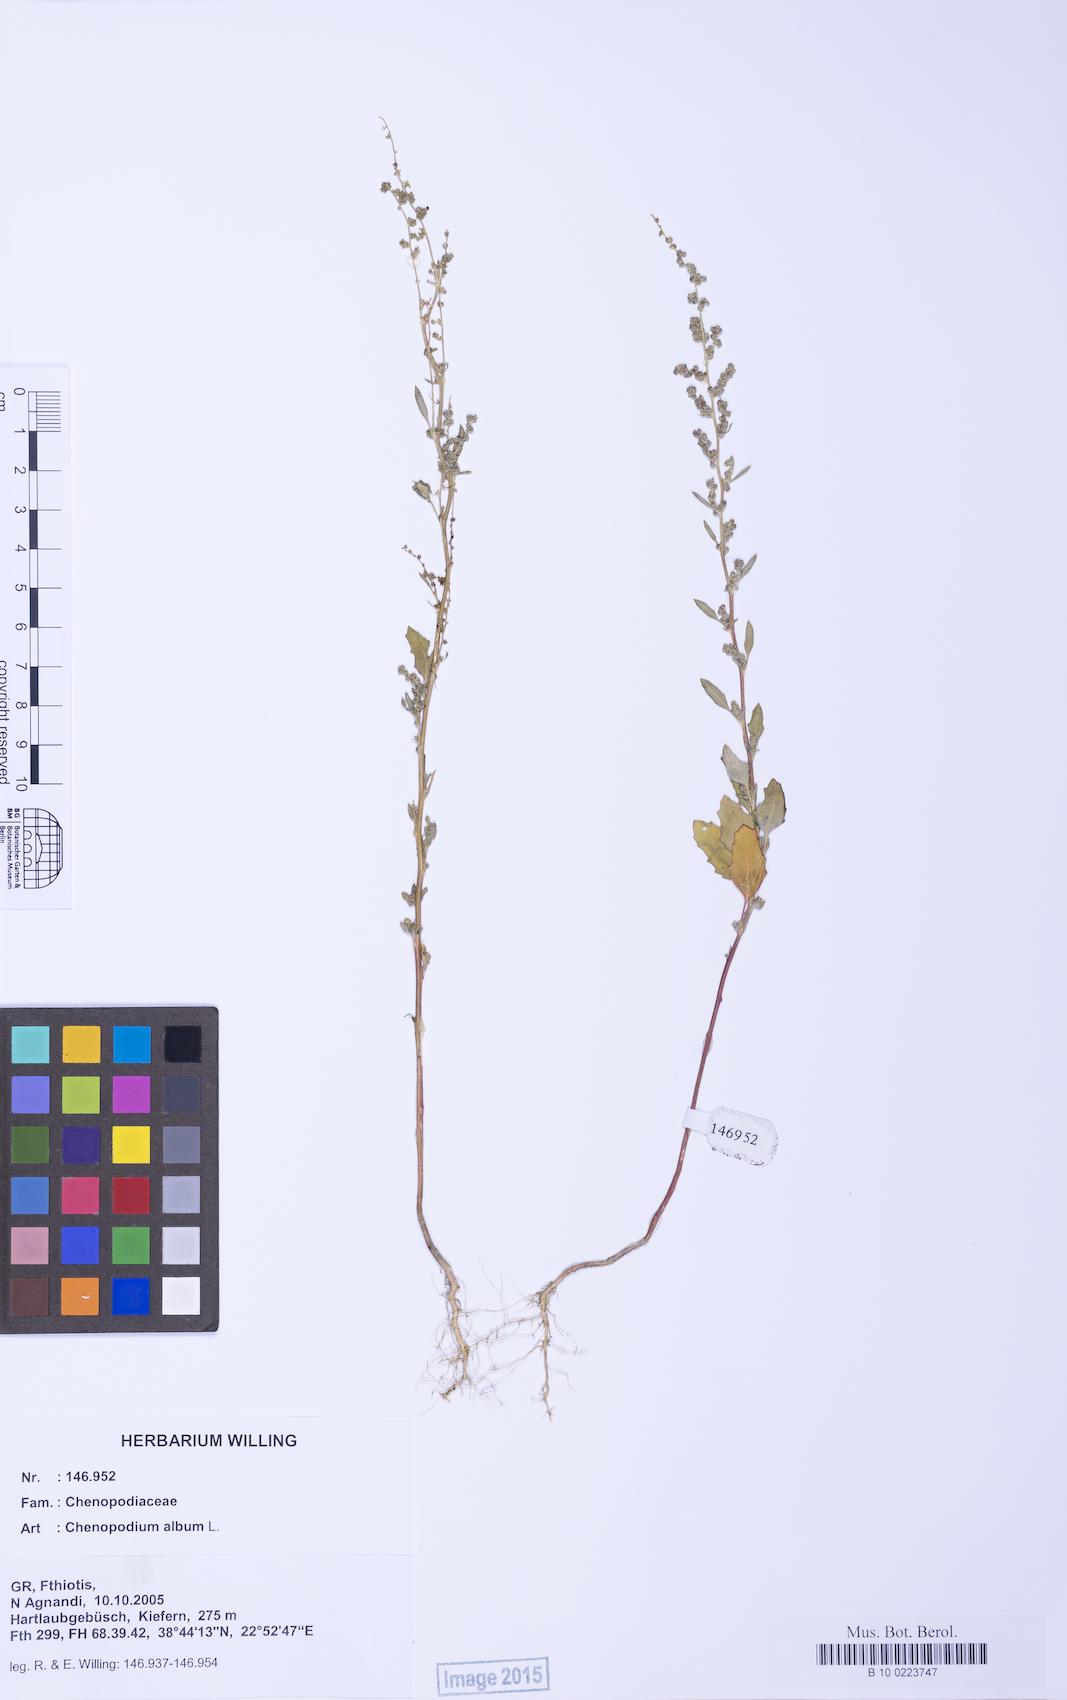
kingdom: Plantae
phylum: Tracheophyta
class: Magnoliopsida
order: Caryophyllales
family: Amaranthaceae
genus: Chenopodium
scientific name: Chenopodium album
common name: Fat-hen
